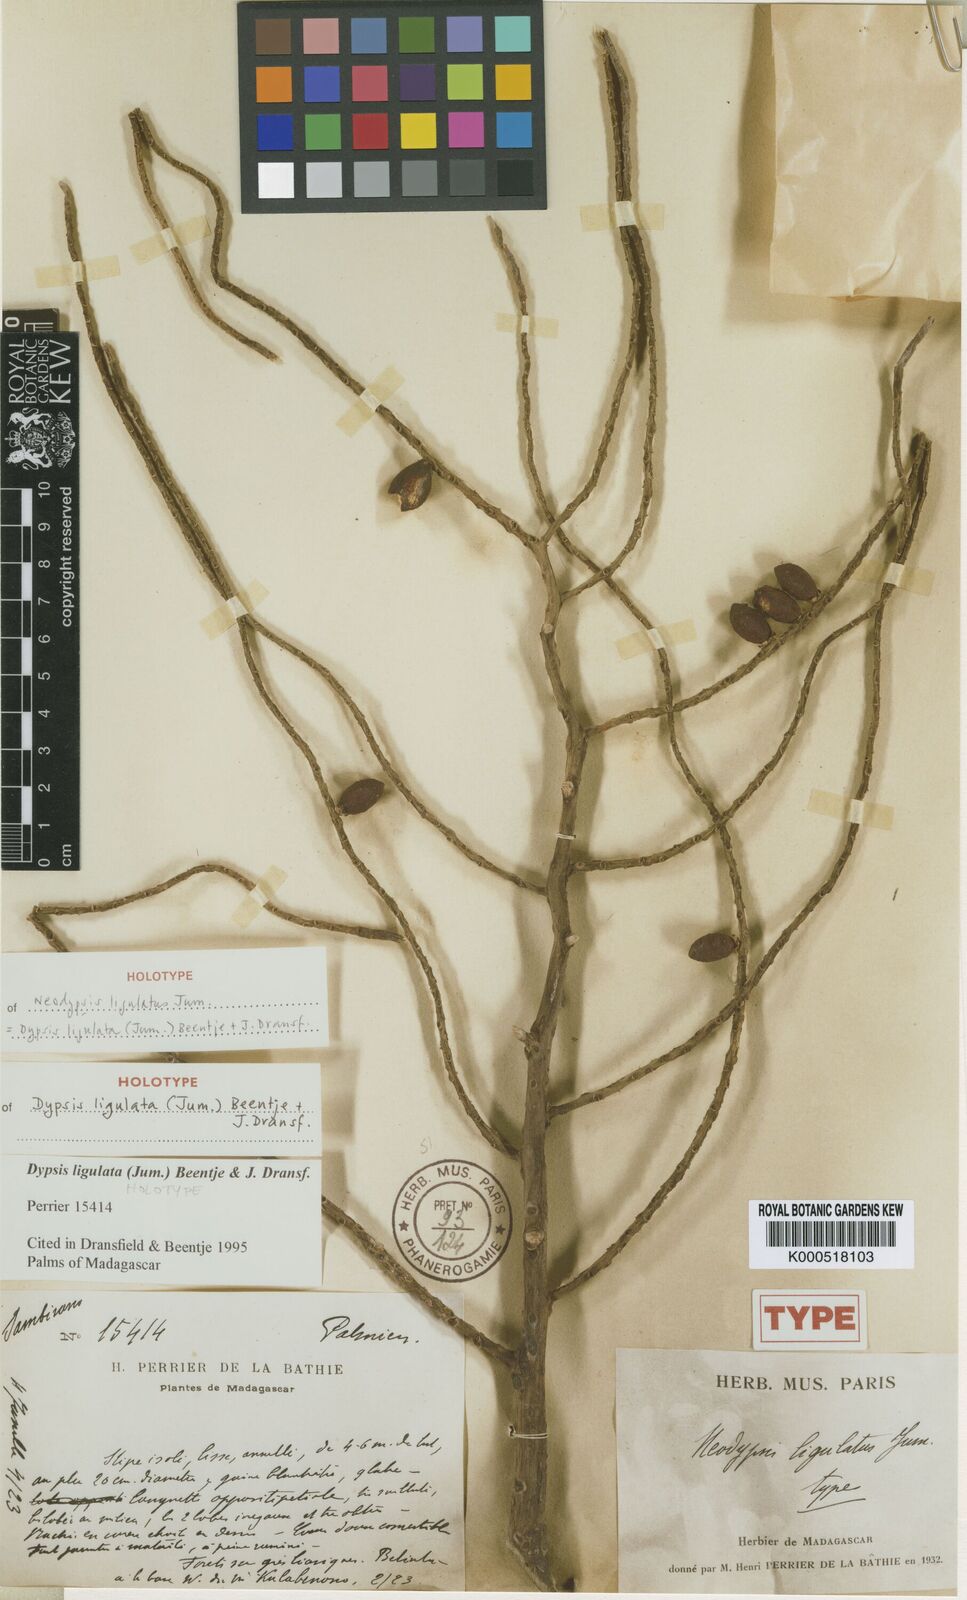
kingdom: Plantae
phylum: Tracheophyta
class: Liliopsida
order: Arecales
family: Arecaceae
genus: Dypsis
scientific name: Dypsis ligulata
